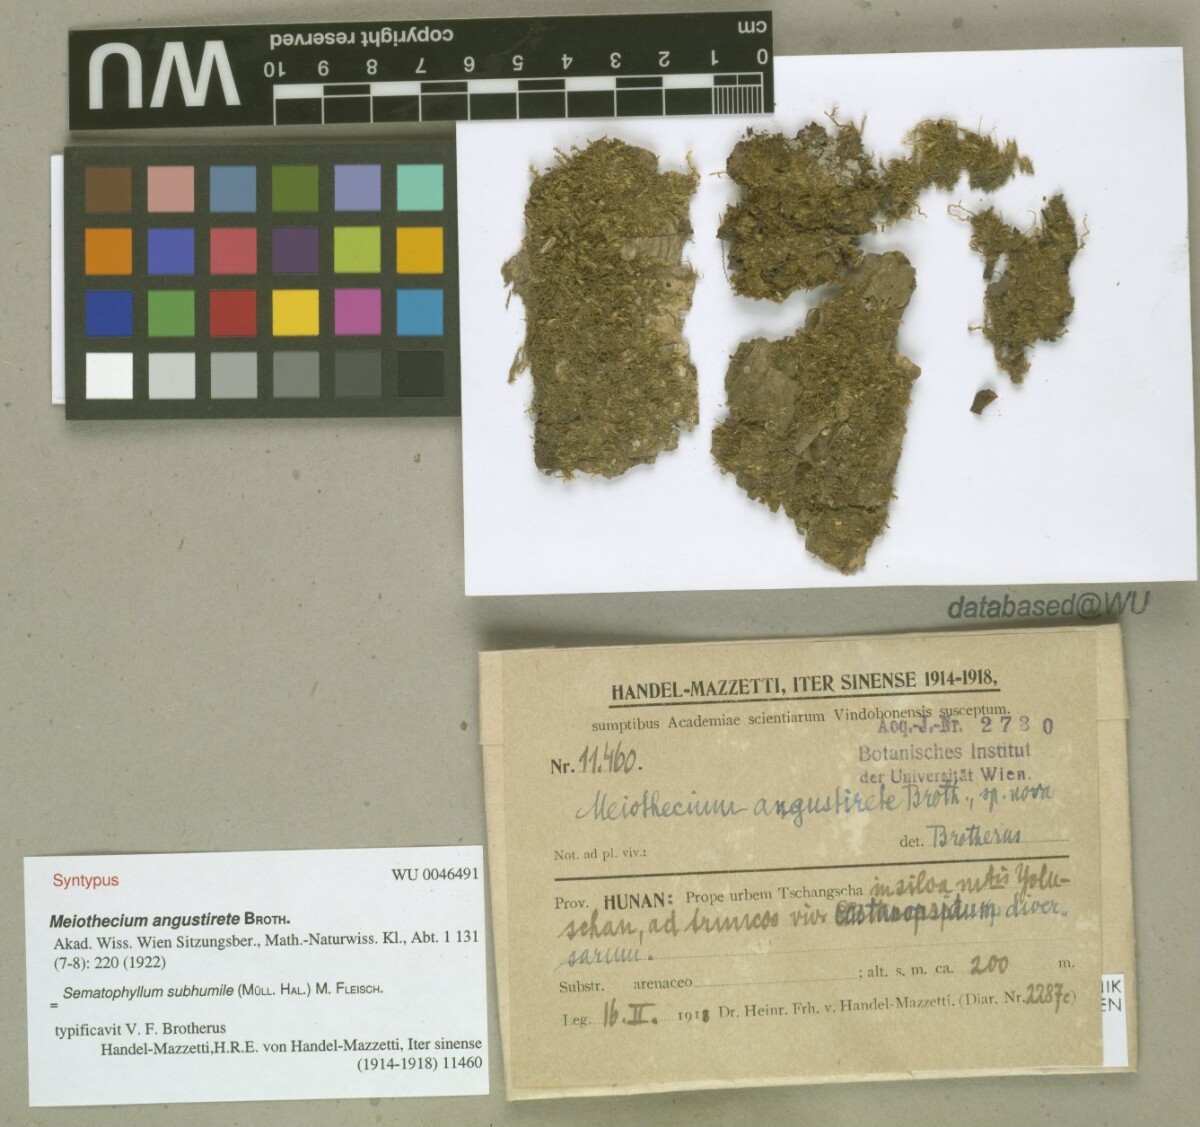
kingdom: Plantae
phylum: Bryophyta
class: Bryopsida
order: Hypnales
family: Sematophyllaceae
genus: Sematophyllum
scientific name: Sematophyllum subhumile
